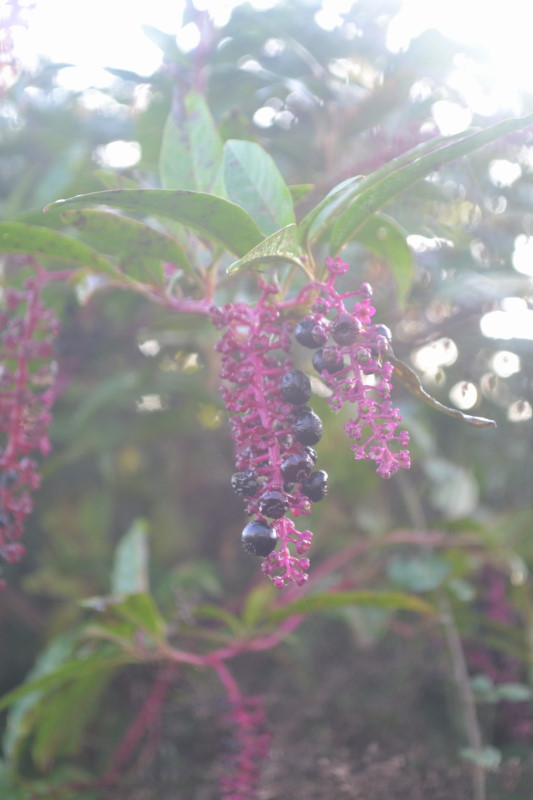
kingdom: Plantae
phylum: Tracheophyta
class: Magnoliopsida
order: Caryophyllales
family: Phytolaccaceae
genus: Phytolacca
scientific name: Phytolacca americana
